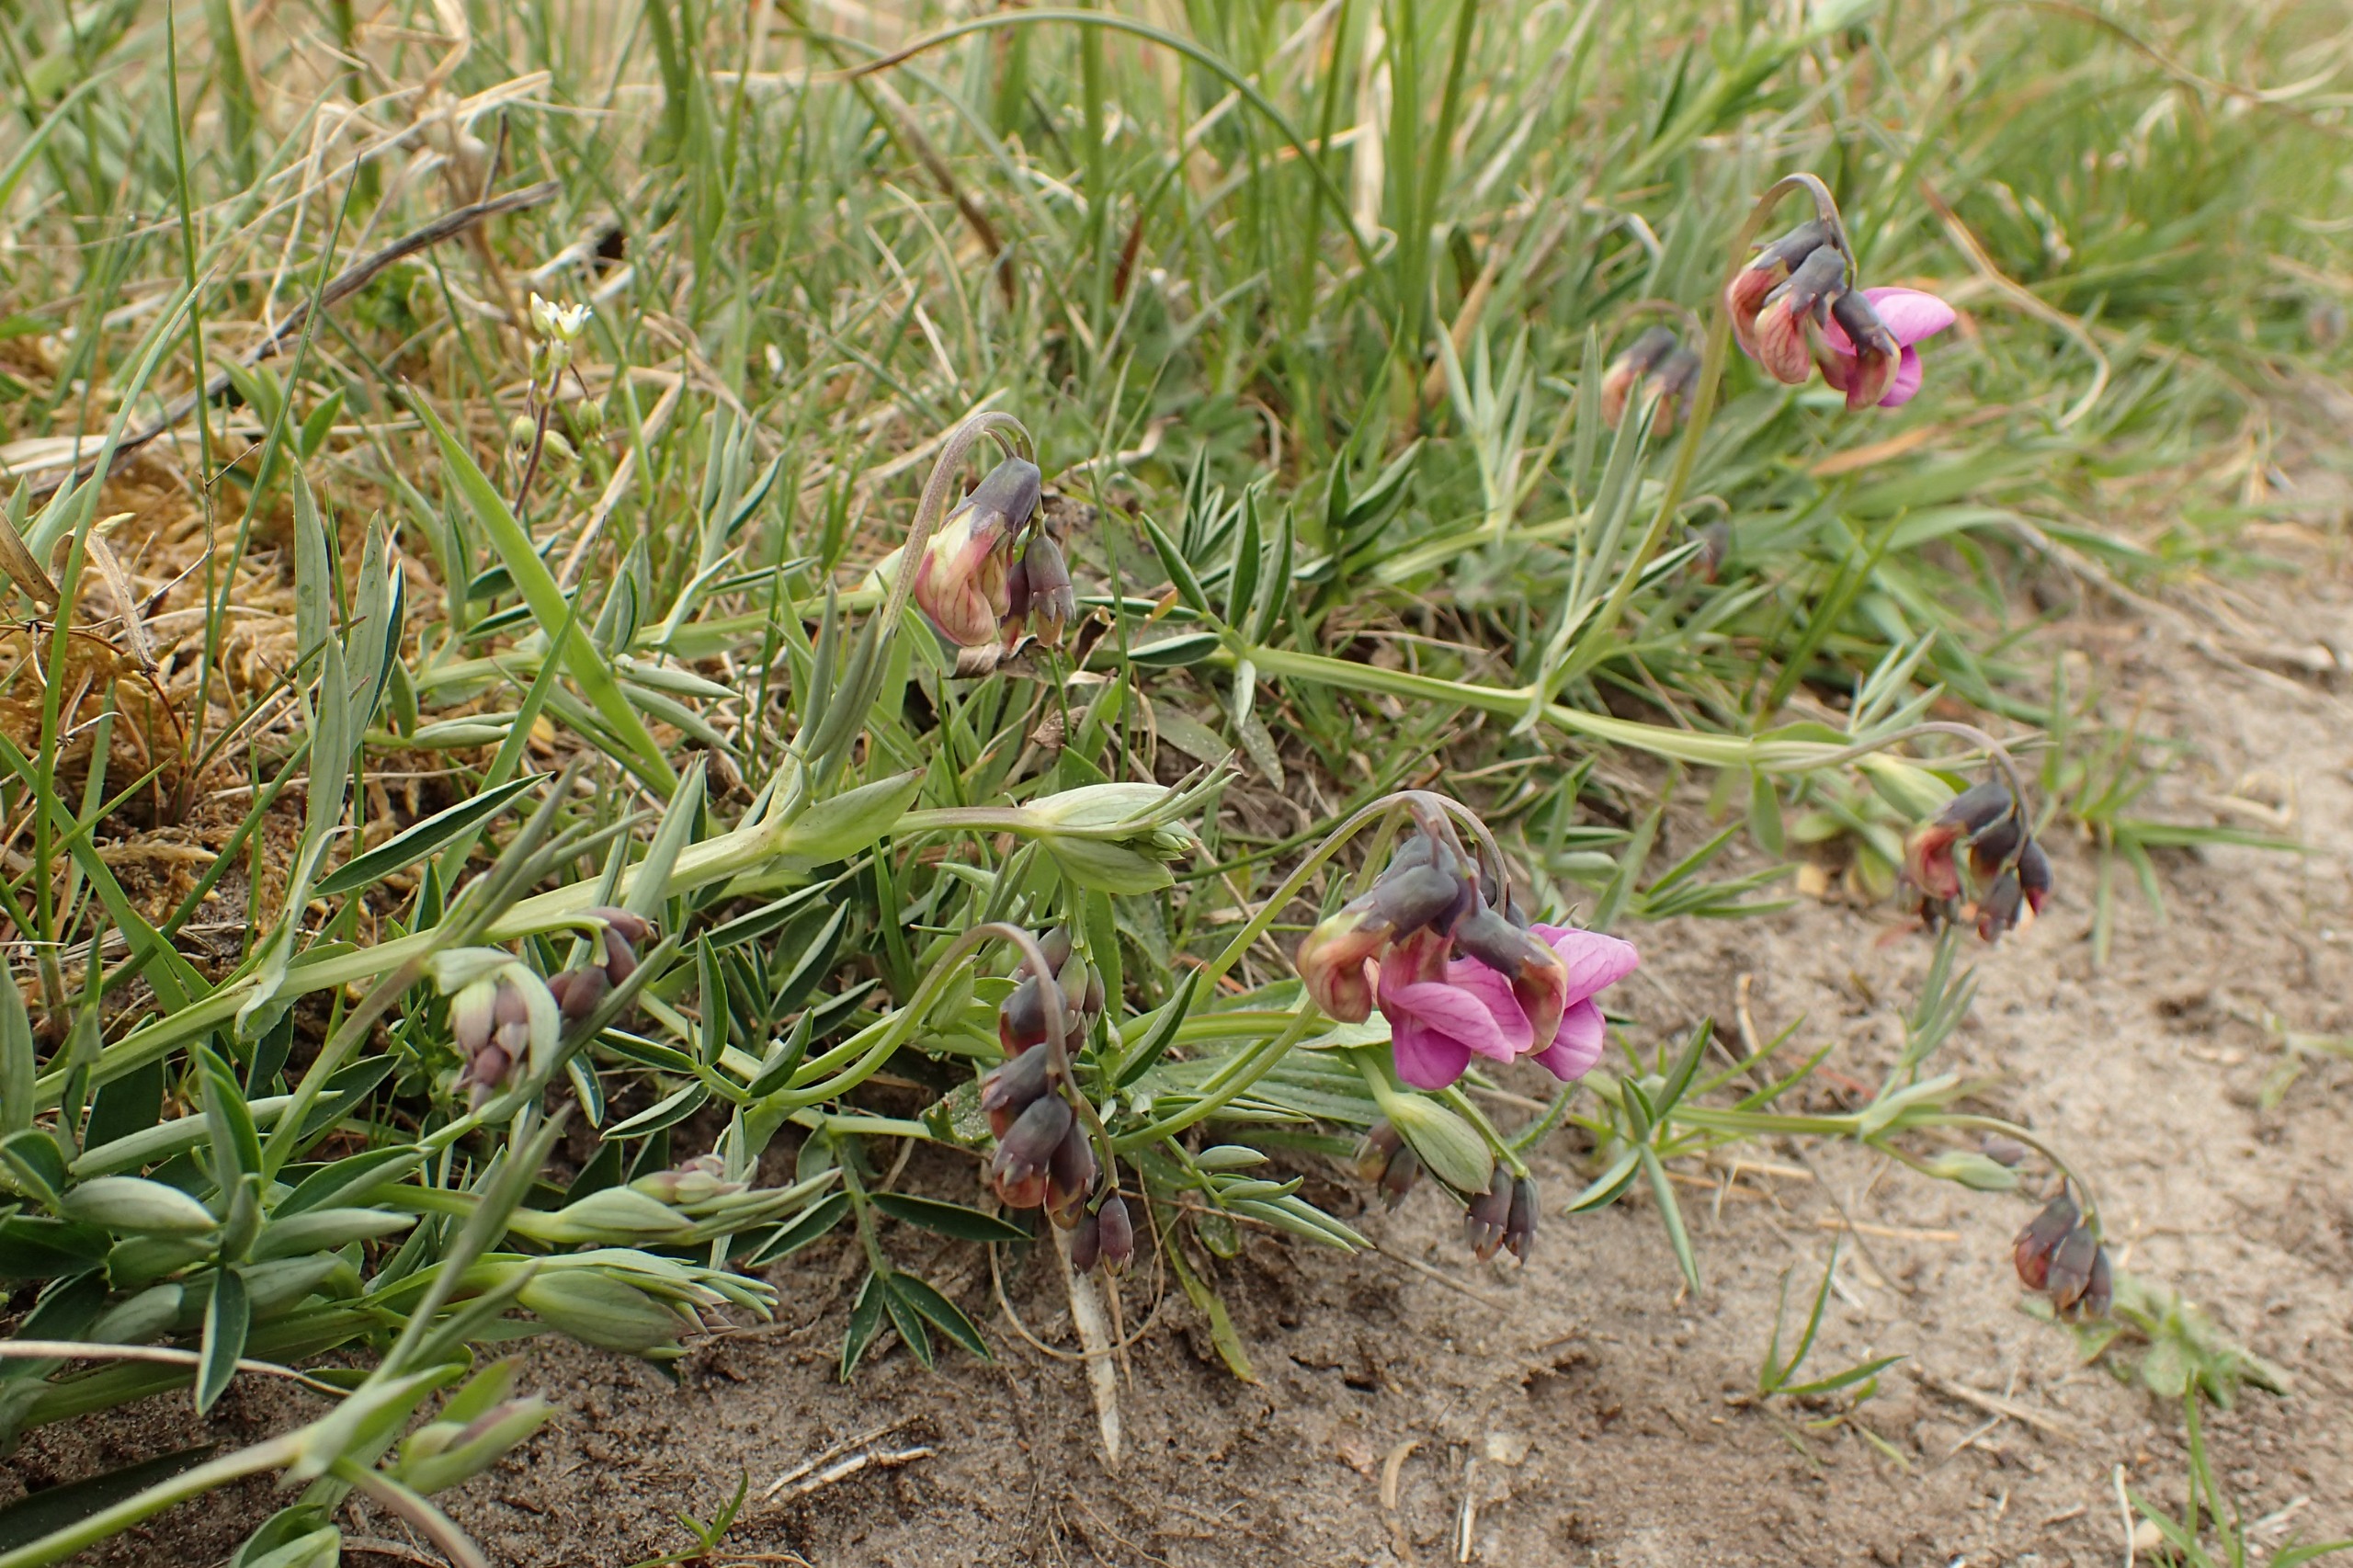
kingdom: Plantae
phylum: Tracheophyta
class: Magnoliopsida
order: Fabales
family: Fabaceae
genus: Lathyrus
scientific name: Lathyrus linifolius
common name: Krat-fladbælg
